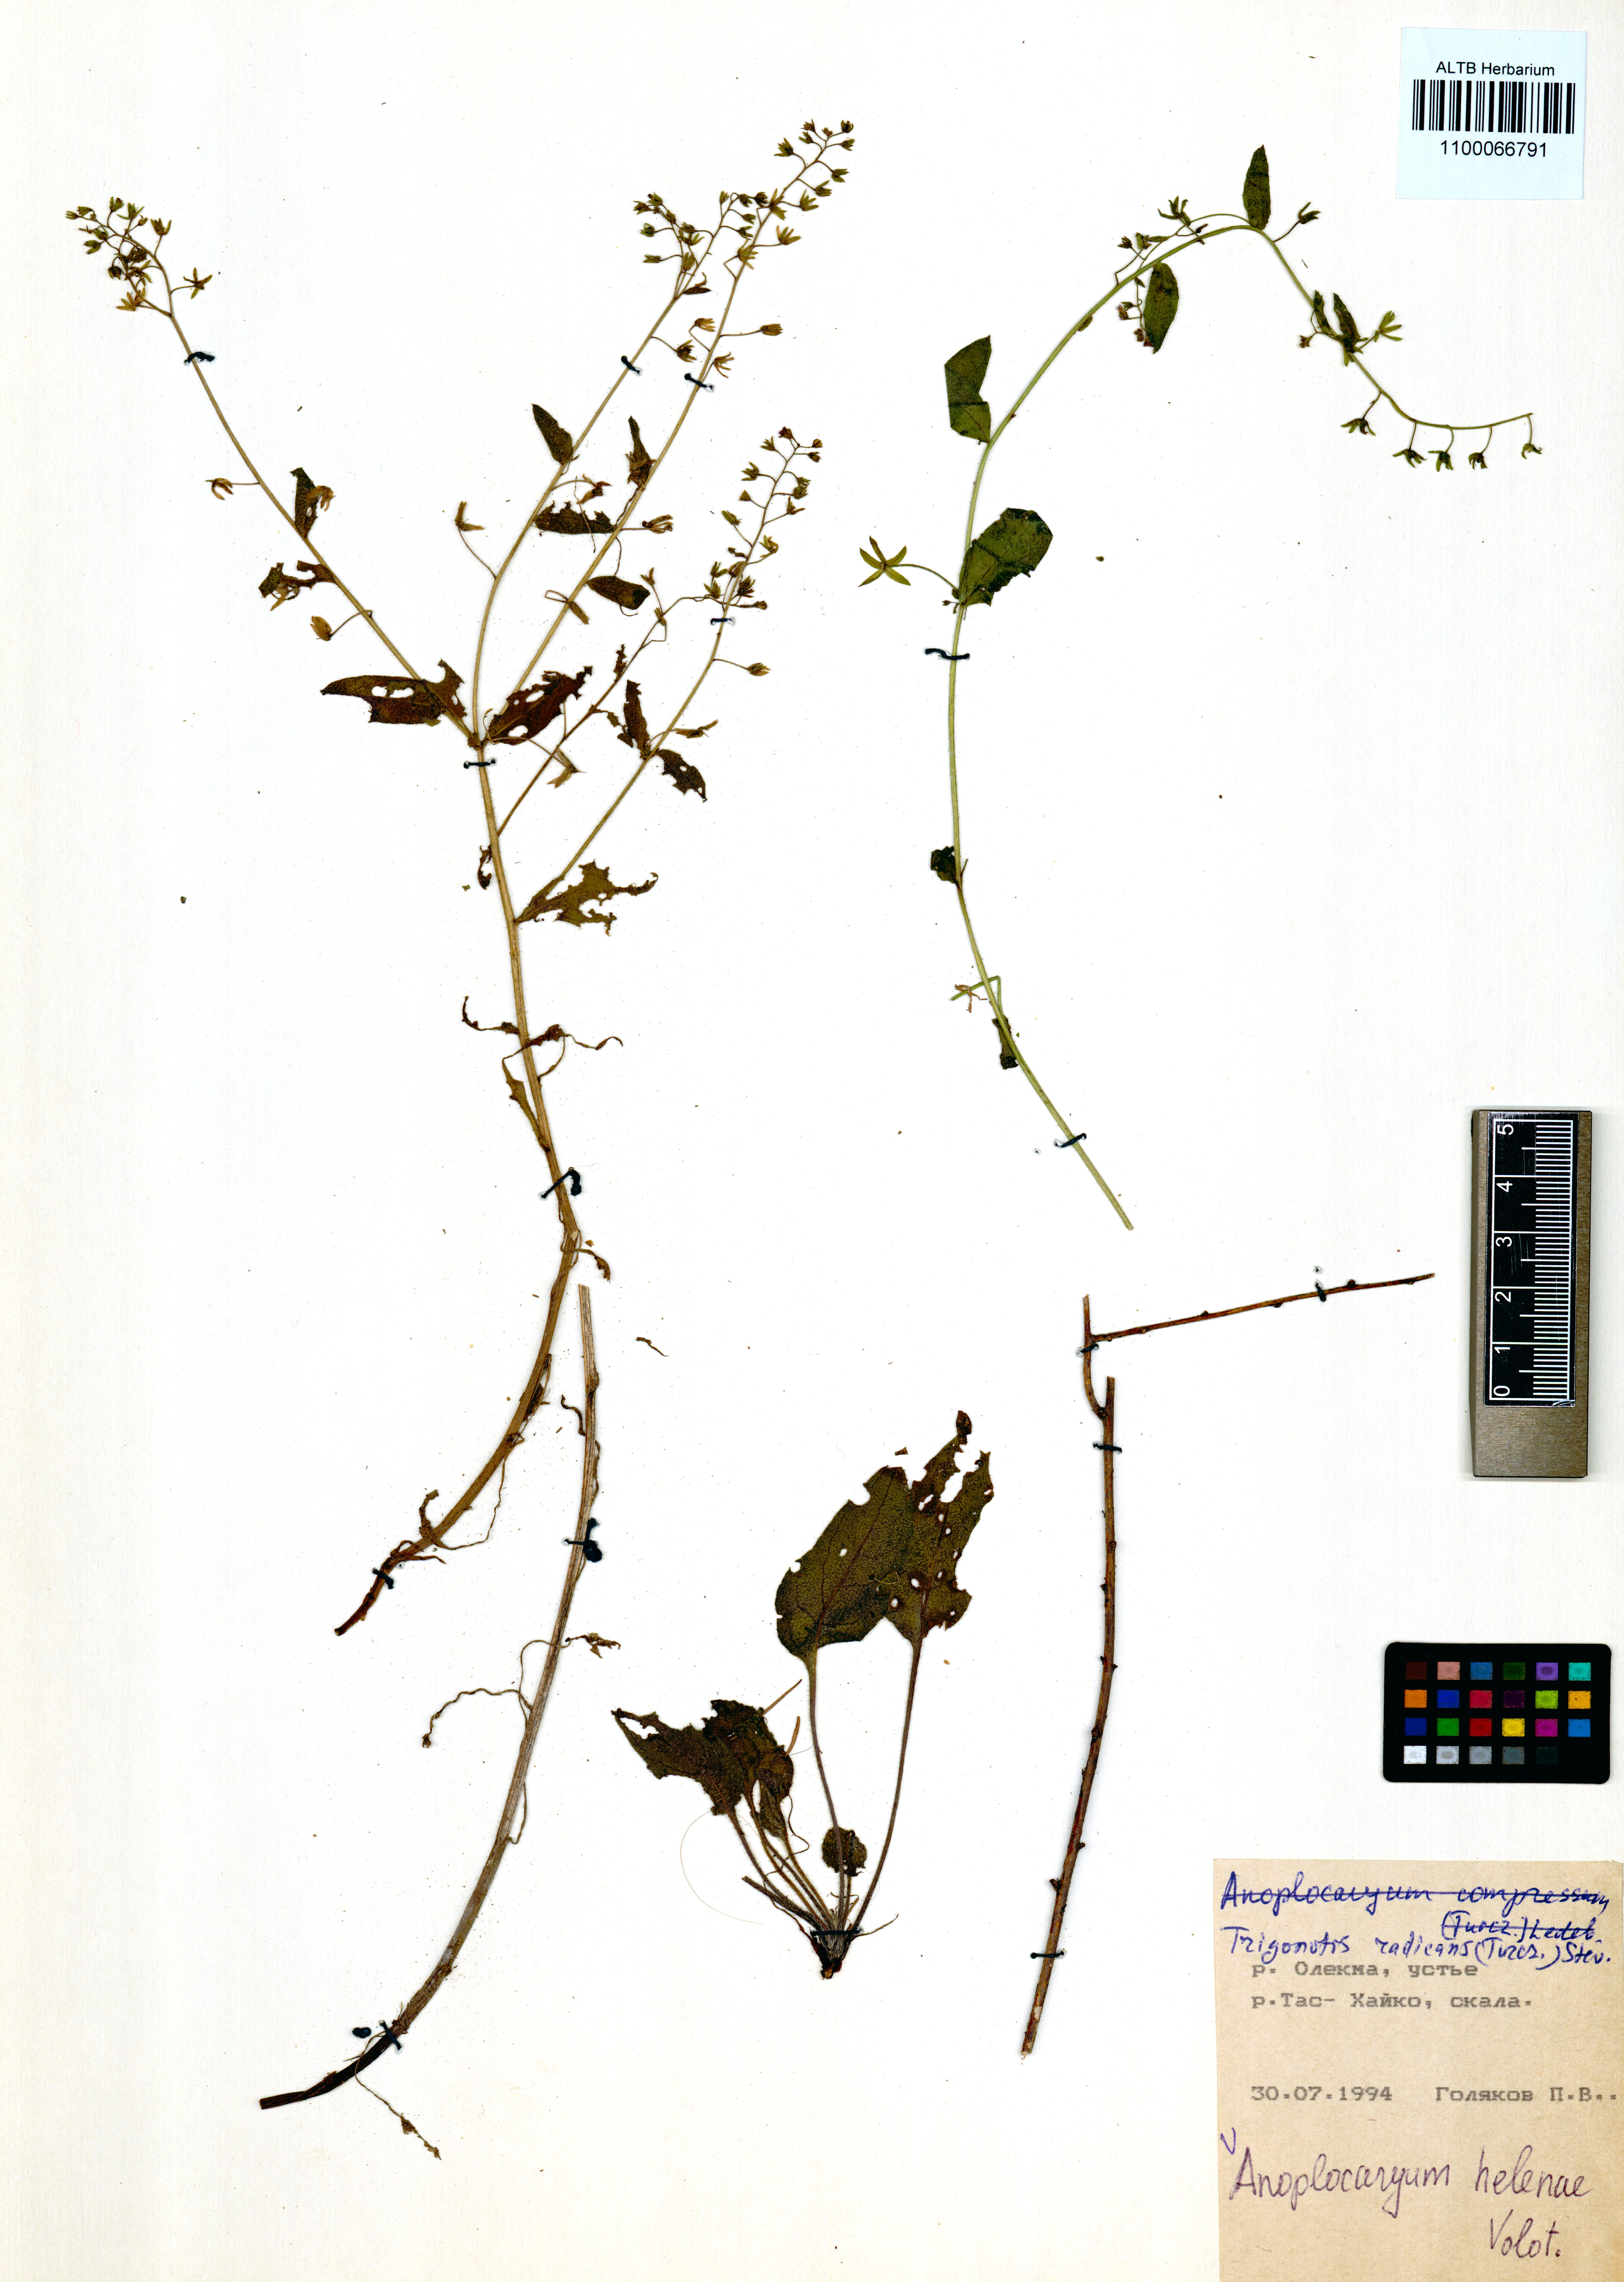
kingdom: Plantae
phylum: Tracheophyta
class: Magnoliopsida
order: Boraginales
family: Boraginaceae
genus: Anoplocaryum
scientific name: Anoplocaryum helenae
